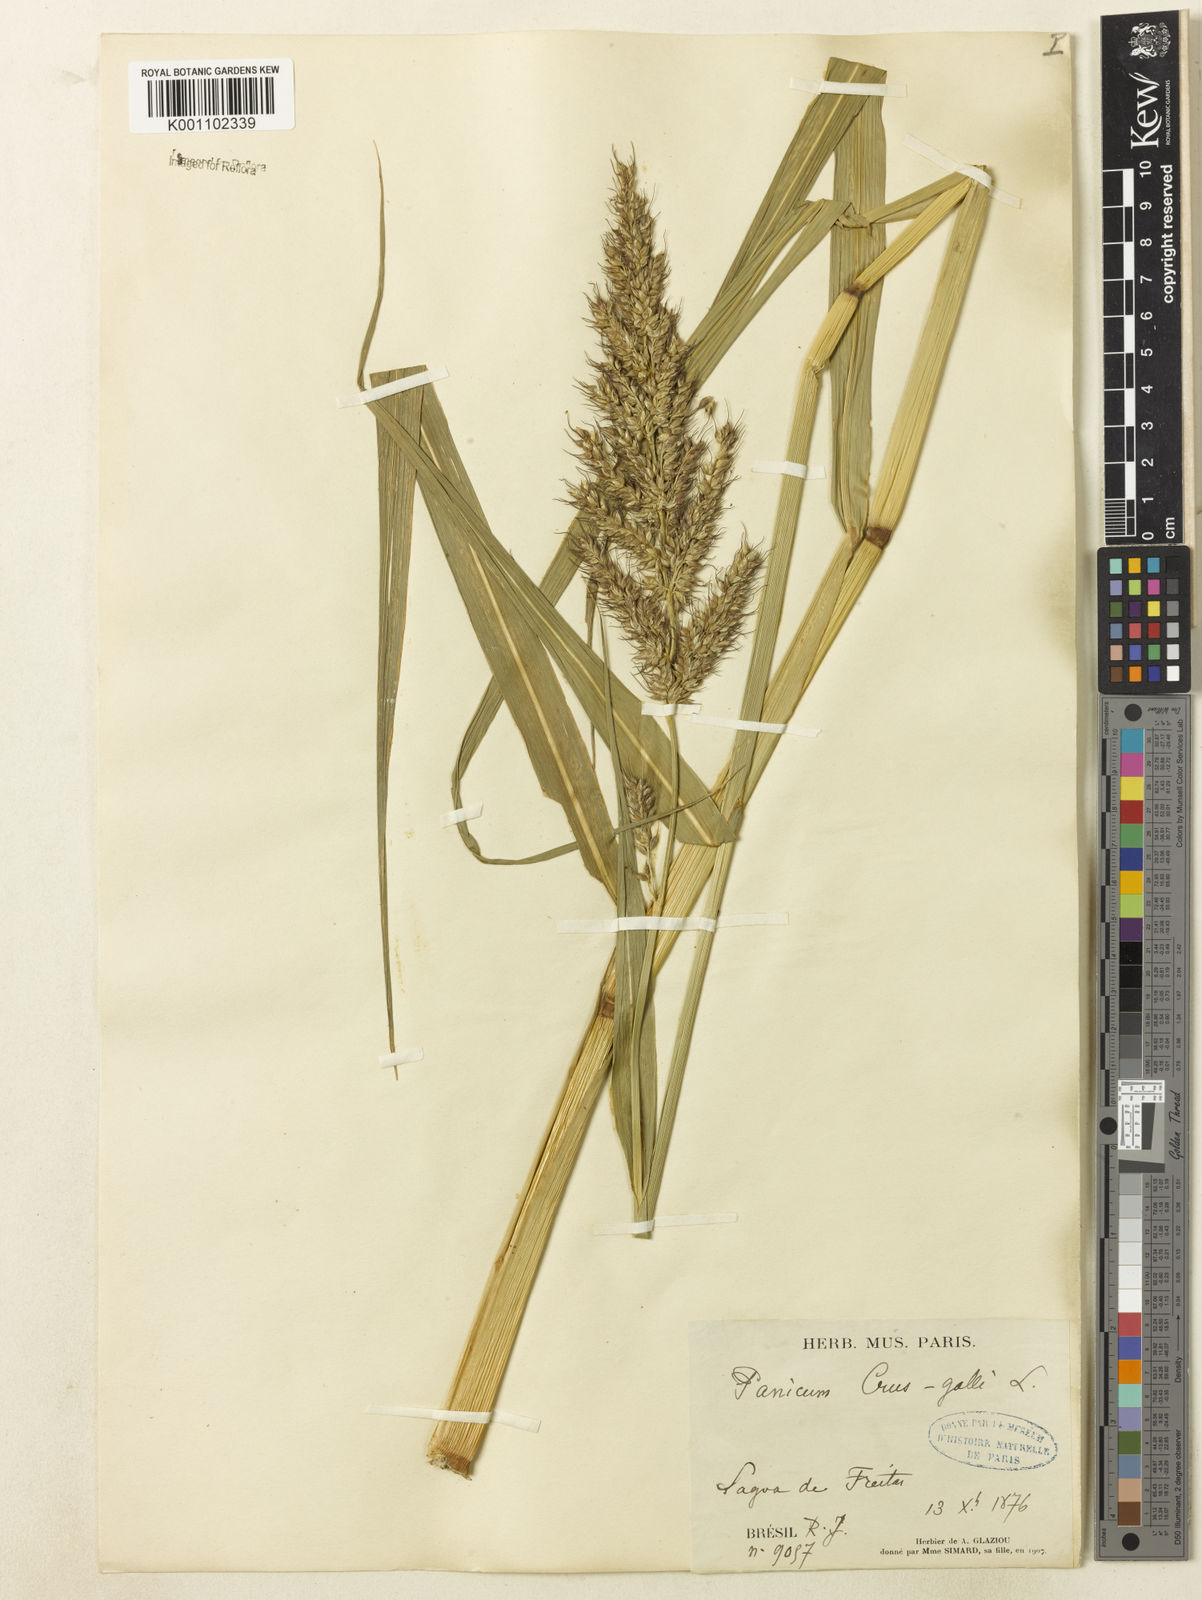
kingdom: Plantae
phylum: Tracheophyta
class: Liliopsida
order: Poales
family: Poaceae
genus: Echinochloa
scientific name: Echinochloa polystachya
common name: Creeping river grass
